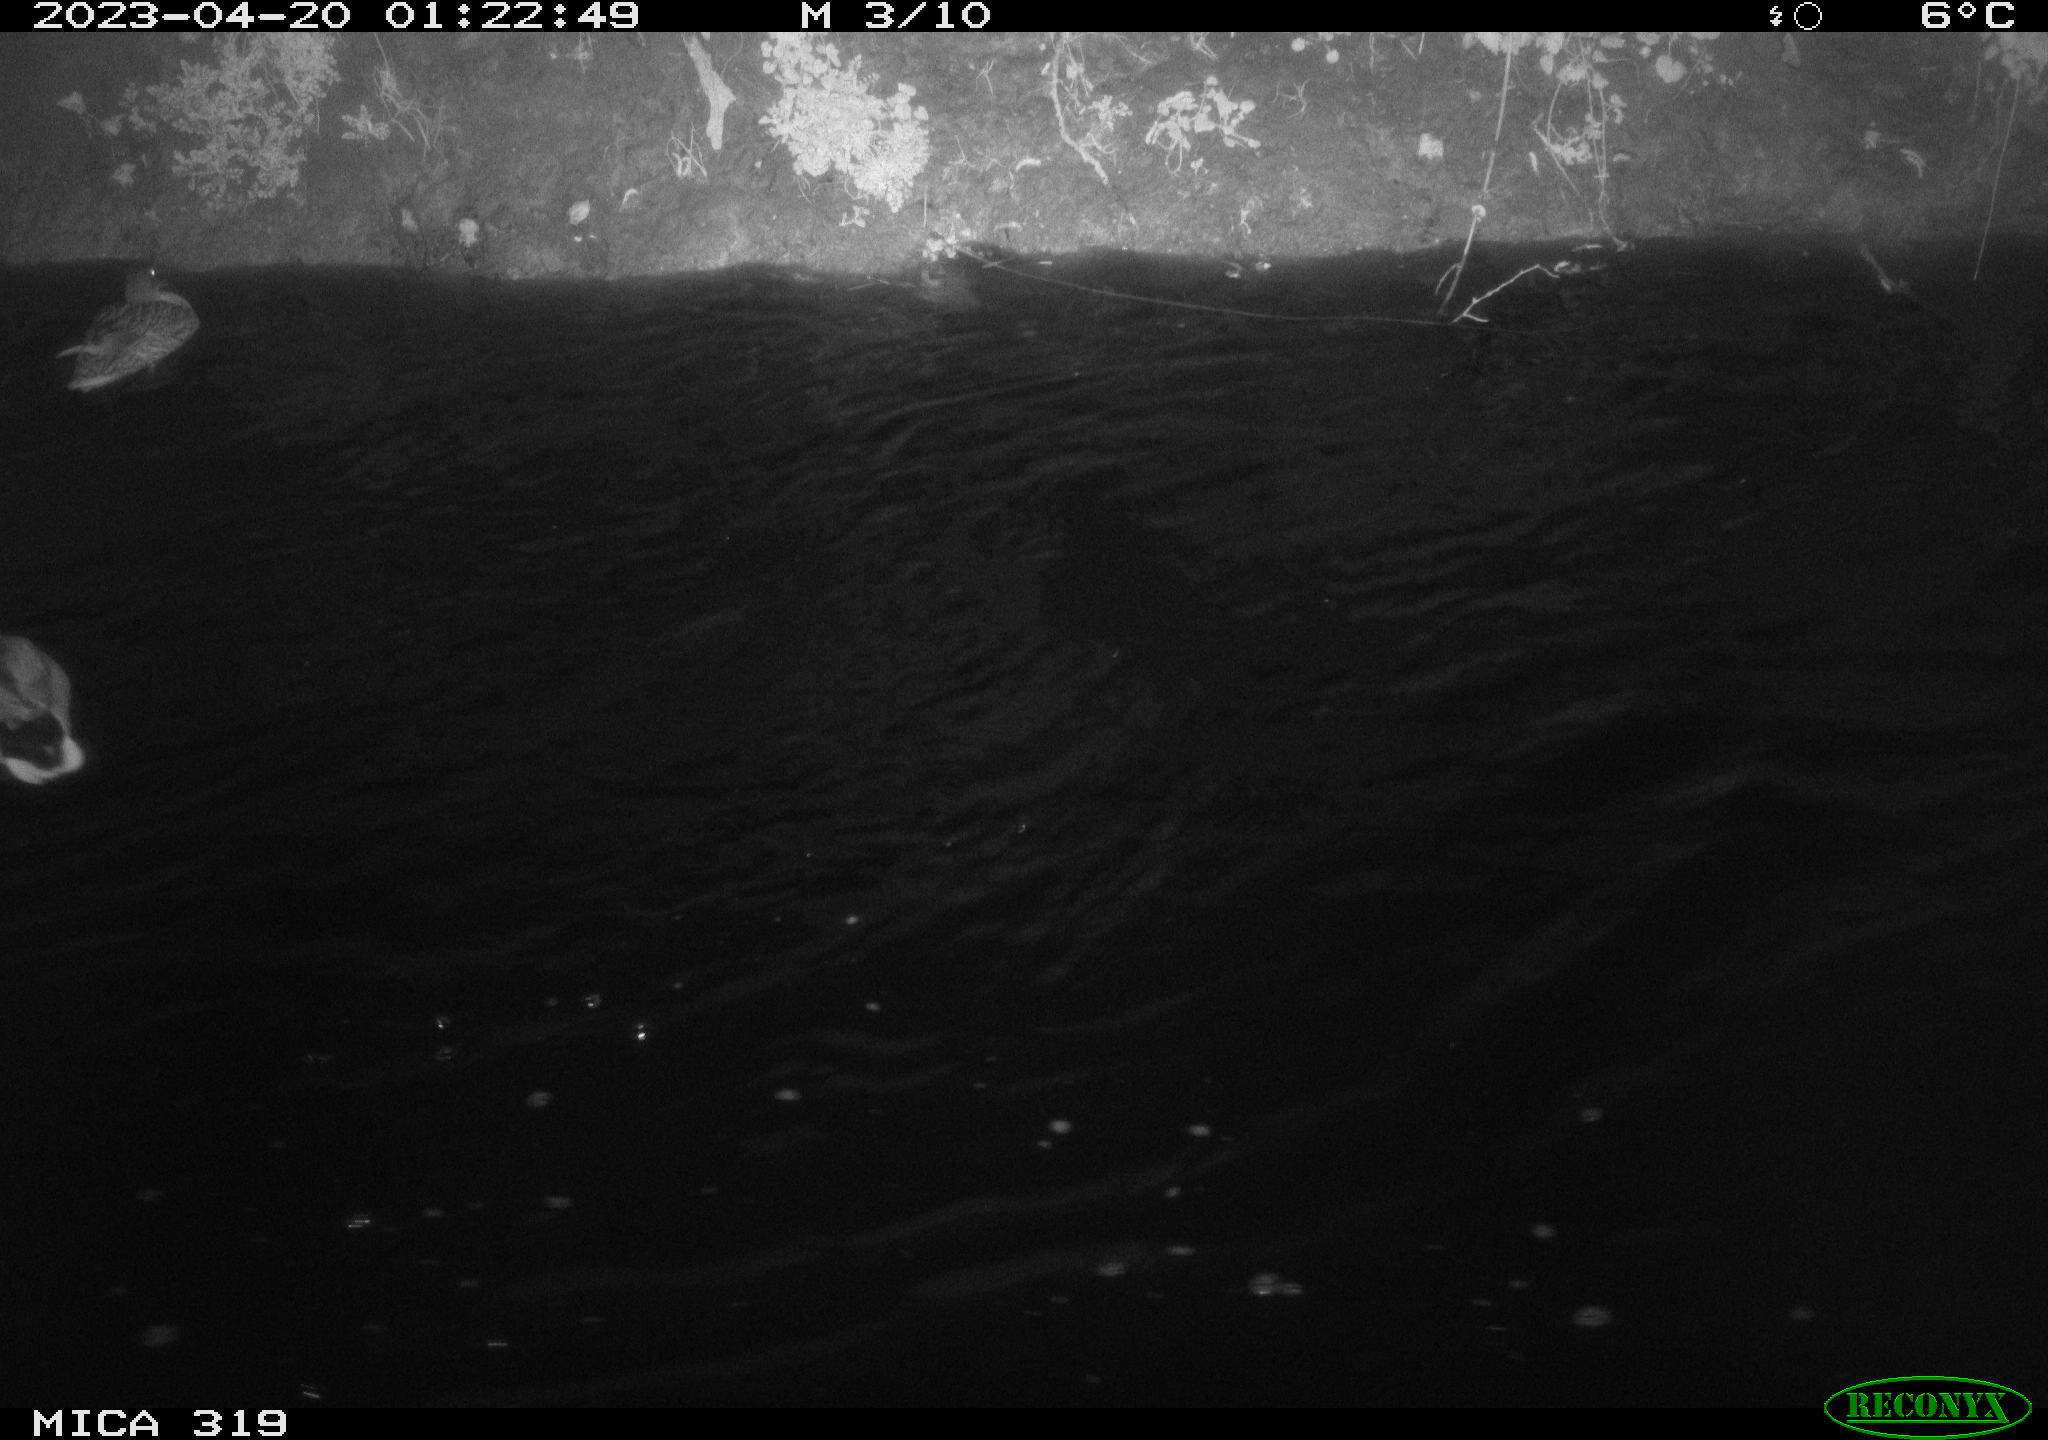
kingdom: Animalia
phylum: Chordata
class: Aves
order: Anseriformes
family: Anatidae
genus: Anas
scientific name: Anas
